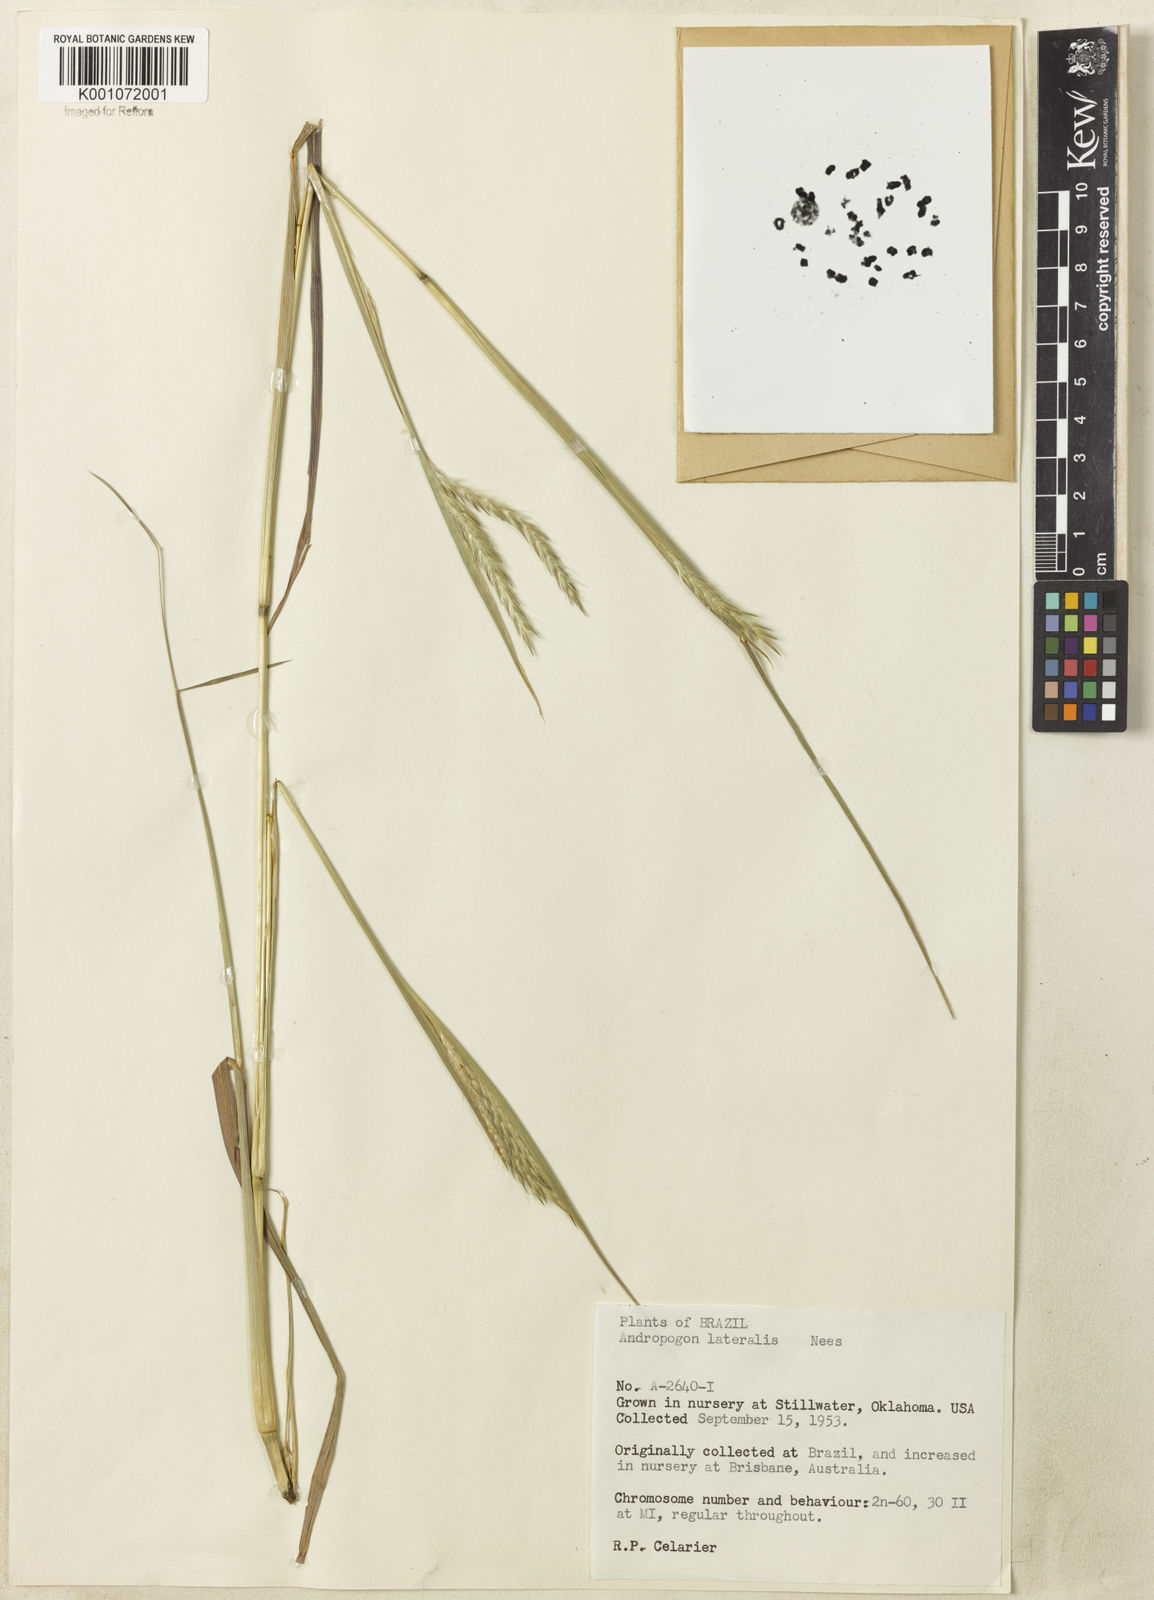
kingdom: Plantae
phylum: Tracheophyta
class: Liliopsida
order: Poales
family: Poaceae
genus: Andropogon
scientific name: Andropogon lateralis
